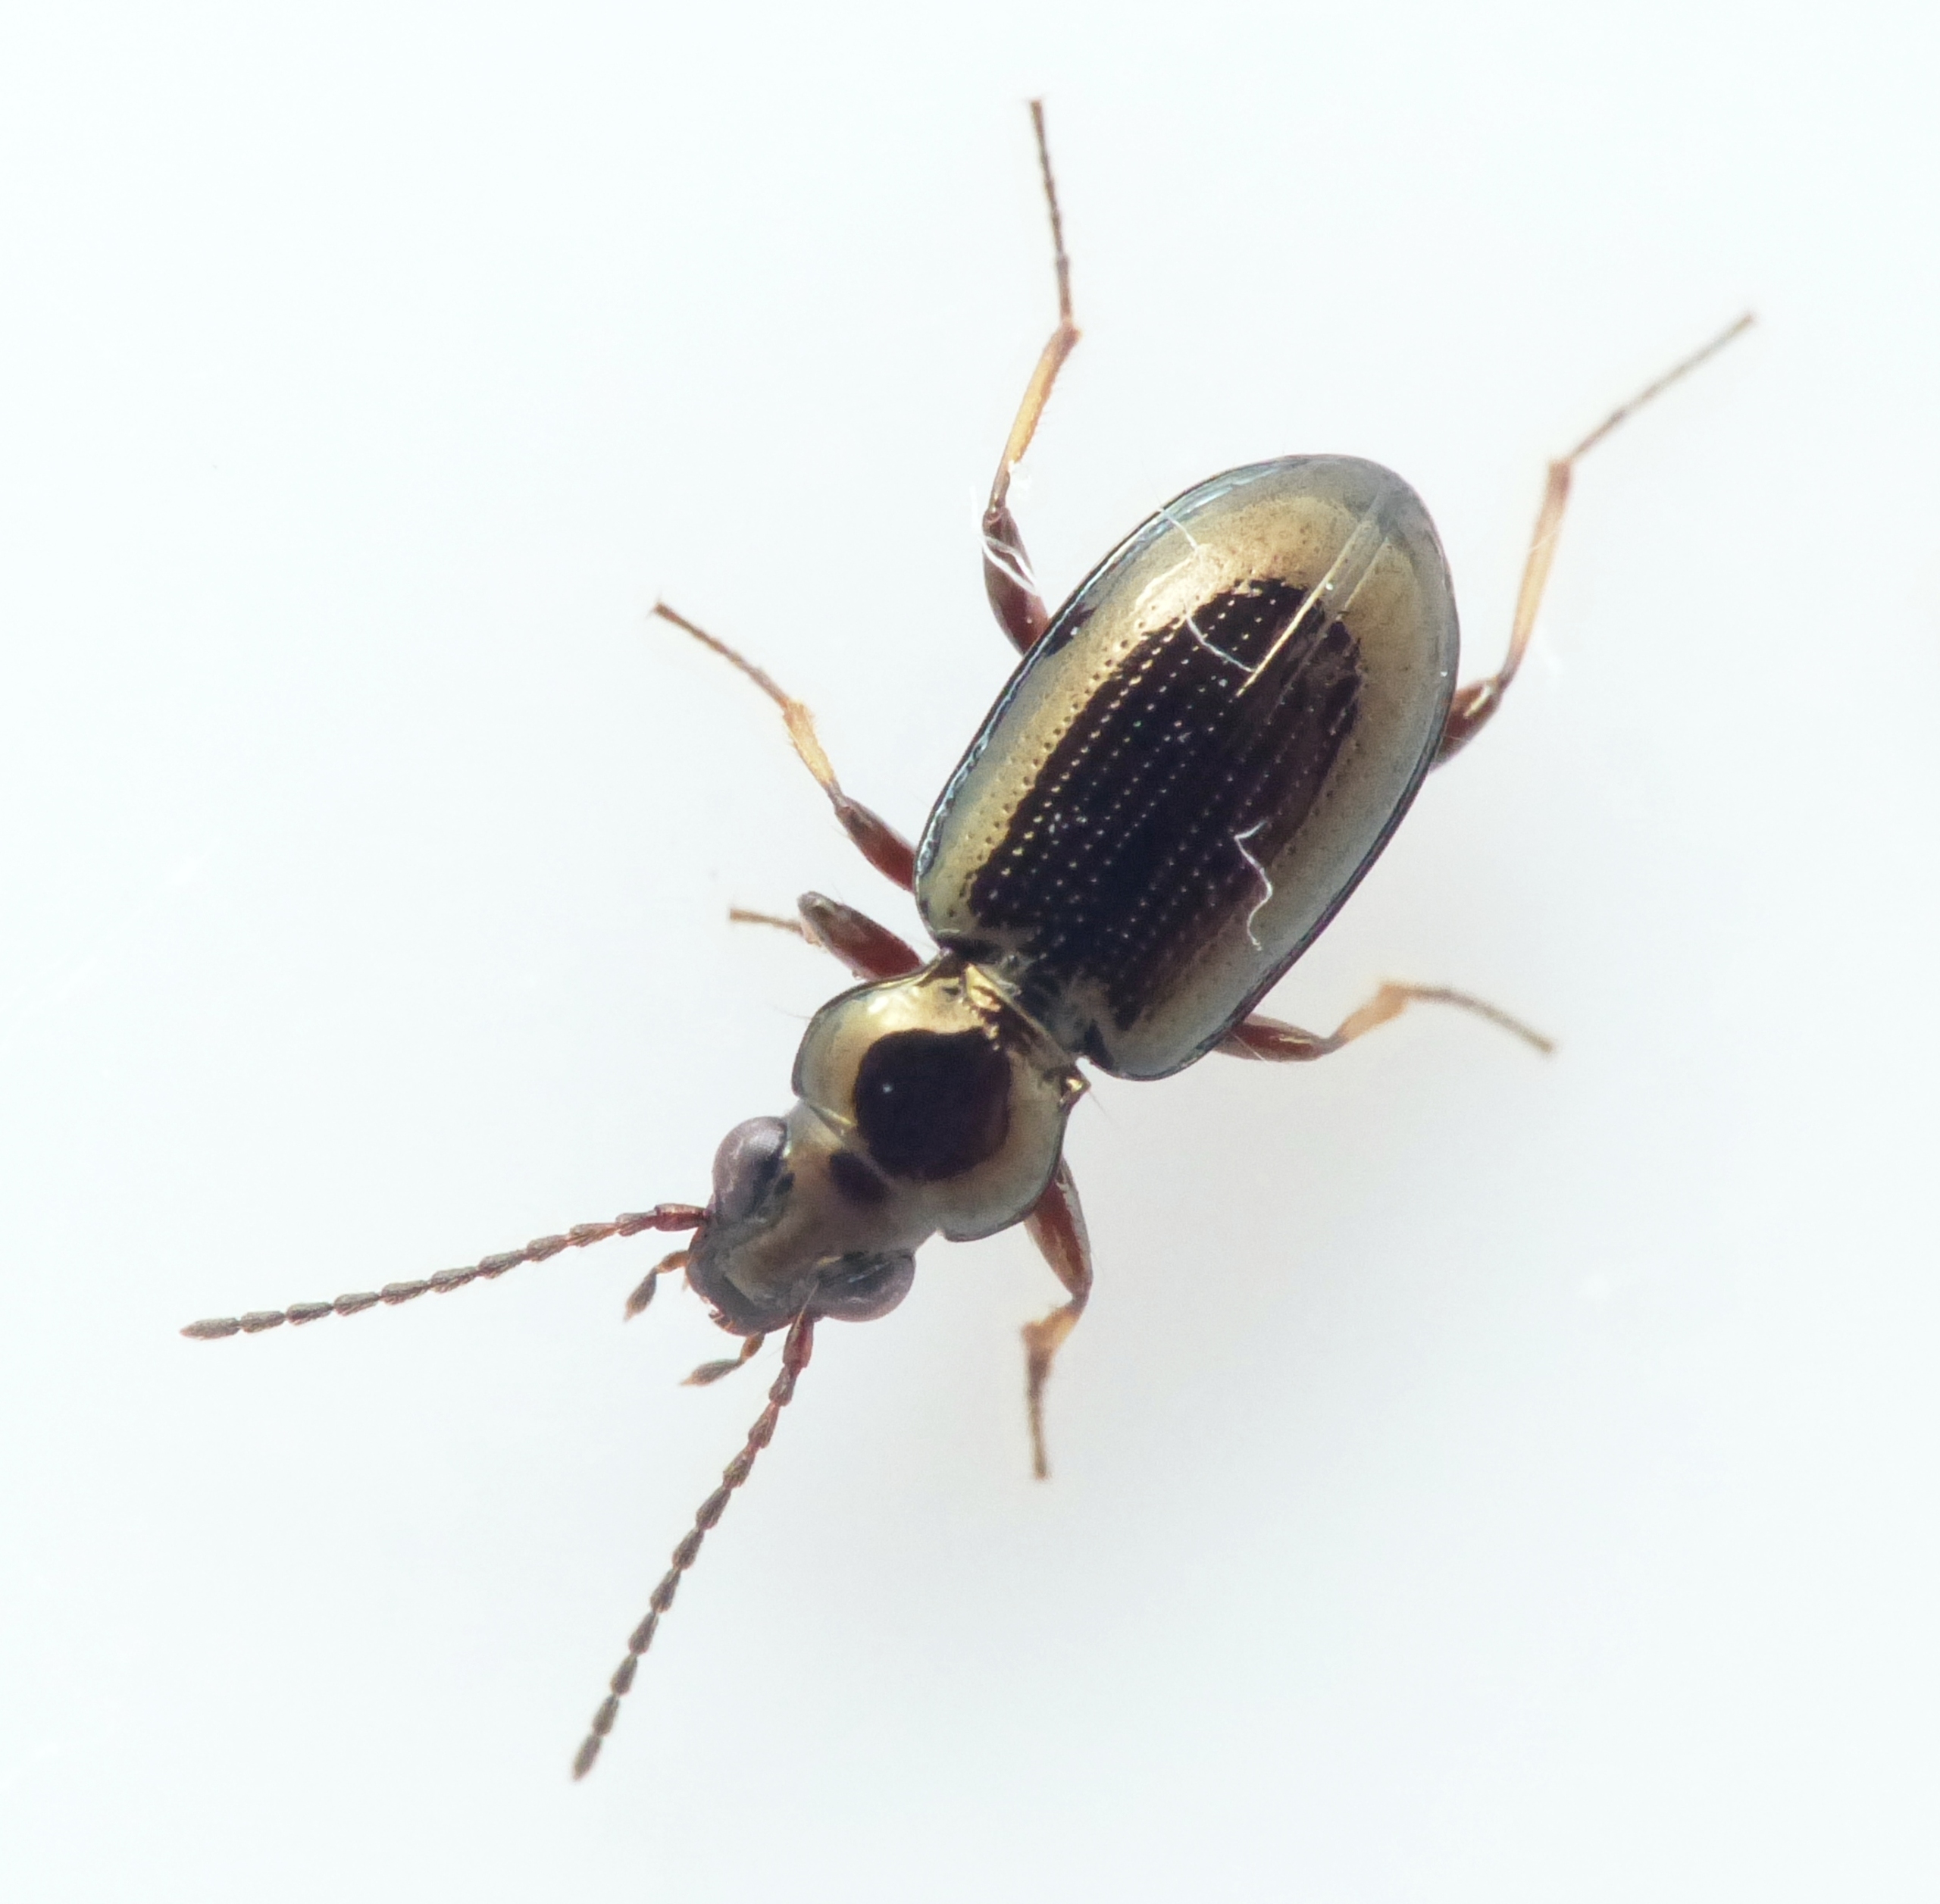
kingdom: Animalia
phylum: Arthropoda
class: Insecta
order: Coleoptera
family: Carabidae
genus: Bembidion
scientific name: Bembidion lampros
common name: Markglansløber
